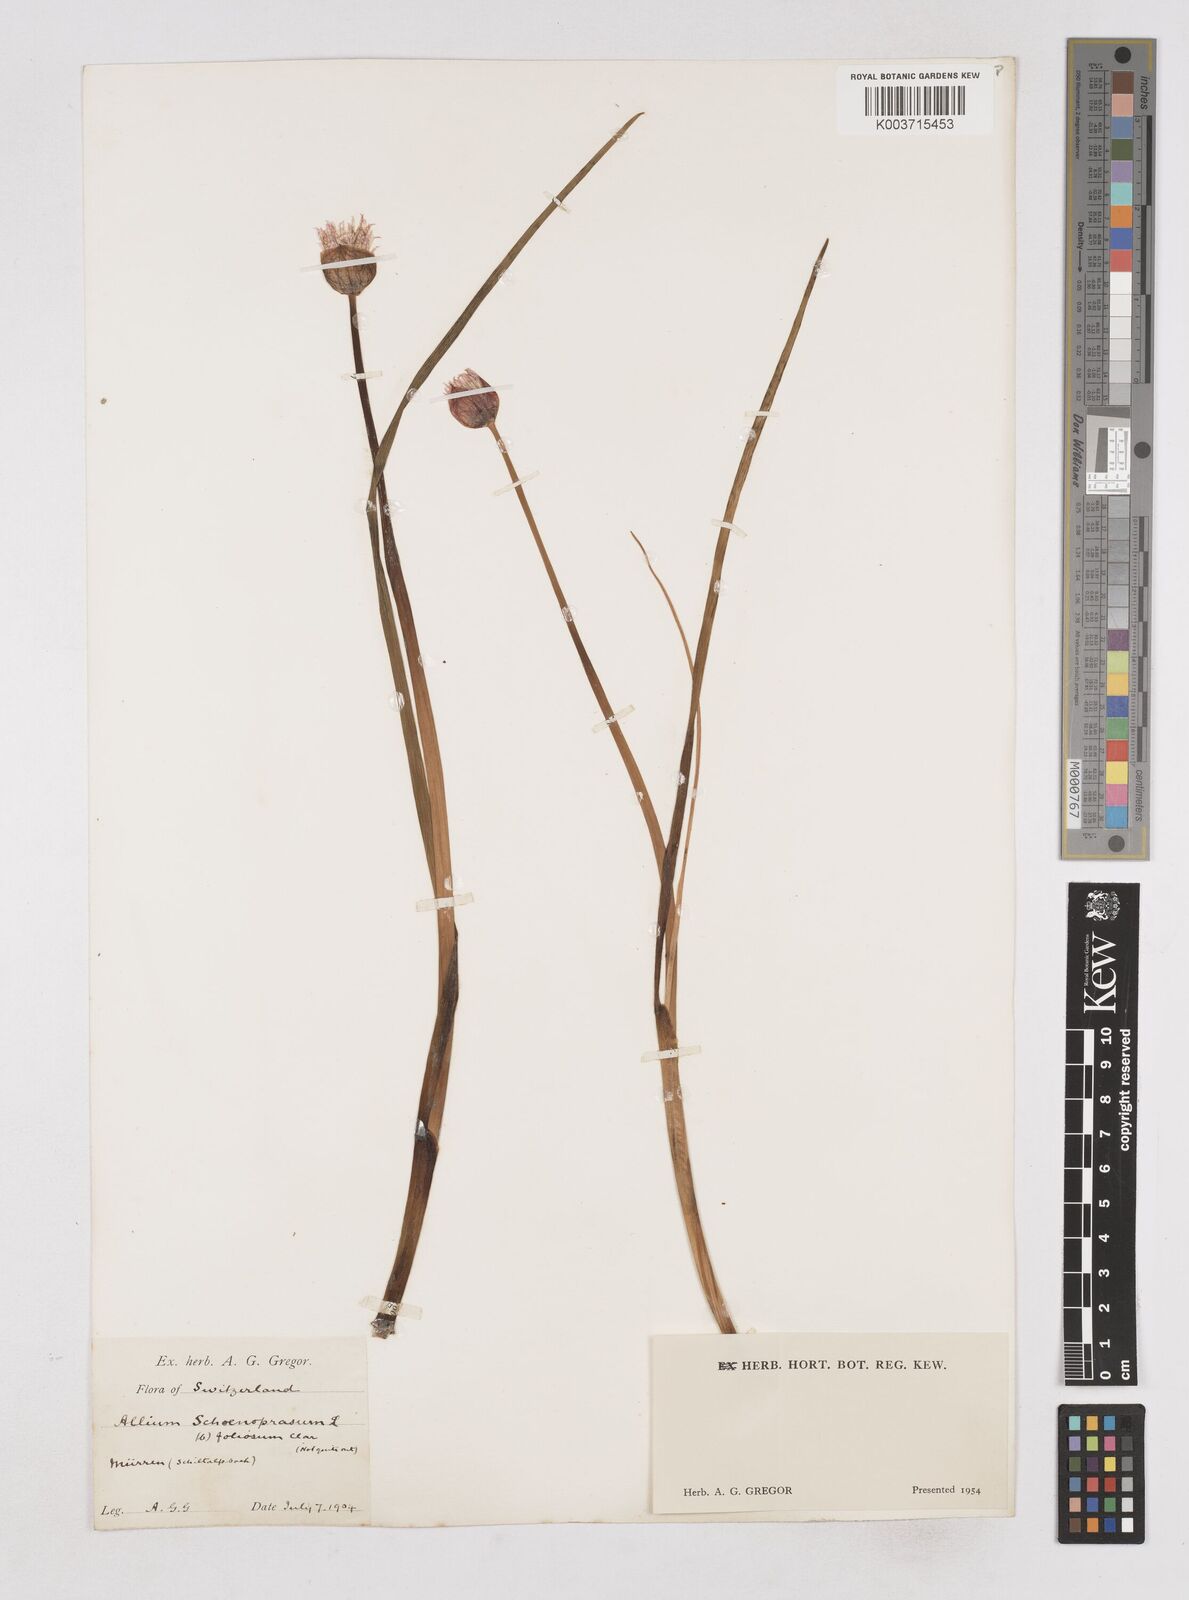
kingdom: Plantae
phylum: Tracheophyta
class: Liliopsida
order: Asparagales
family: Amaryllidaceae
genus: Allium
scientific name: Allium schoenoprasum
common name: Chives
